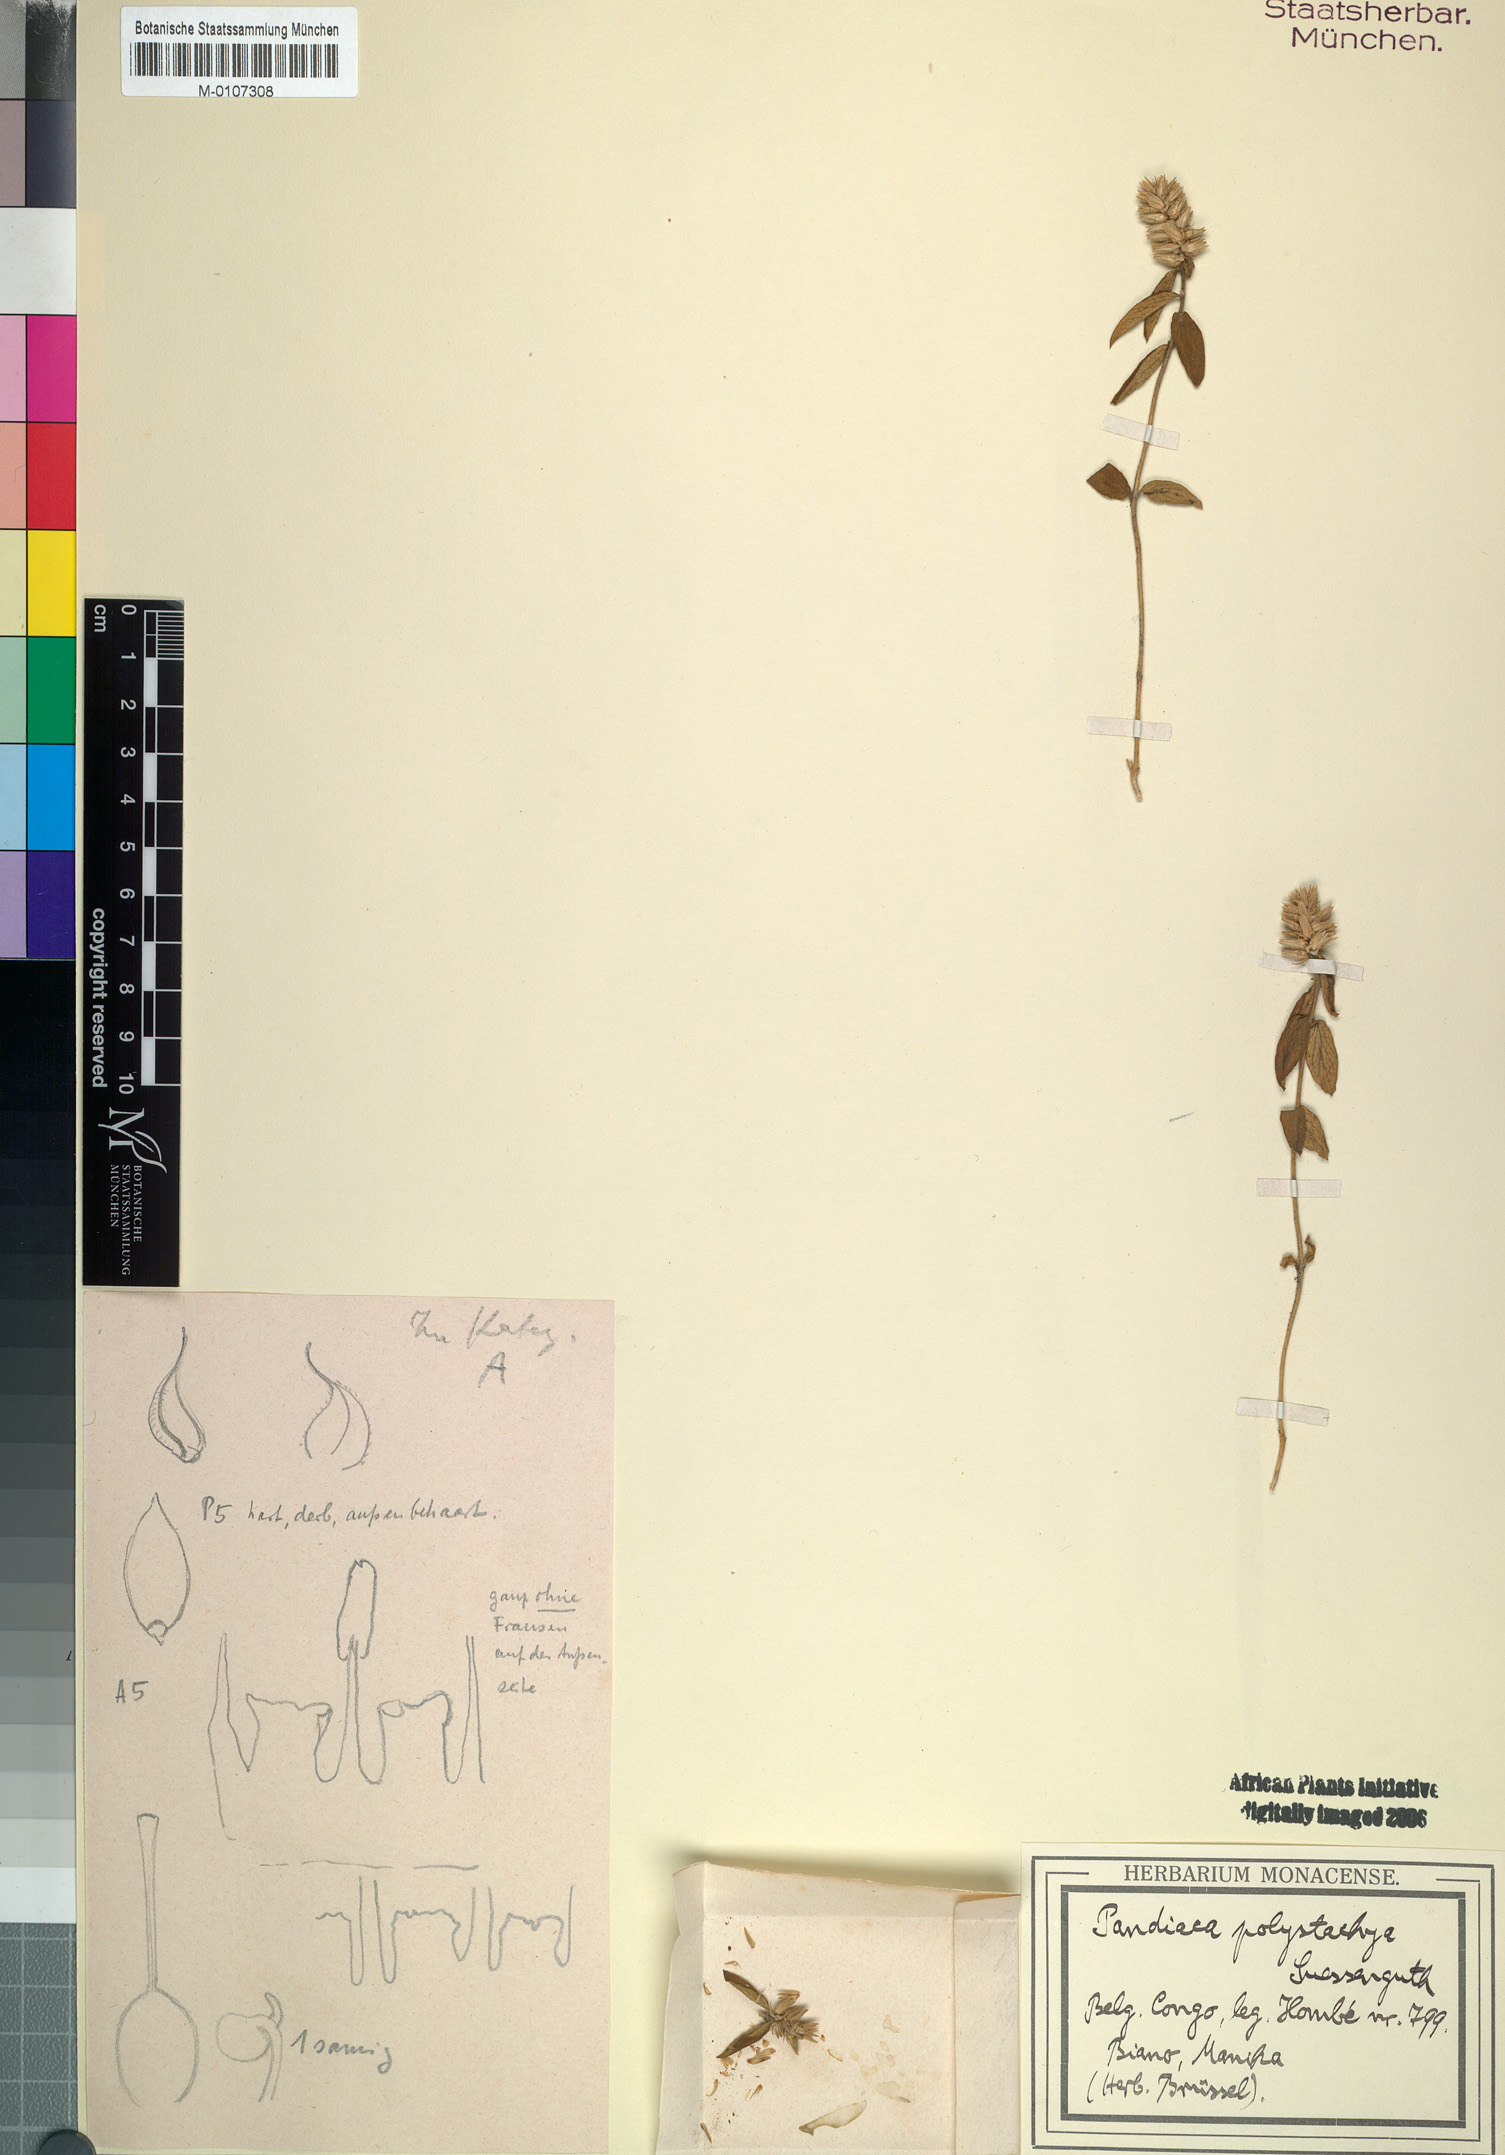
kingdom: Plantae
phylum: Tracheophyta
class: Magnoliopsida
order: Caryophyllales
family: Amaranthaceae
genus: Pandiaka
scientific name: Pandiaka ramulosa
